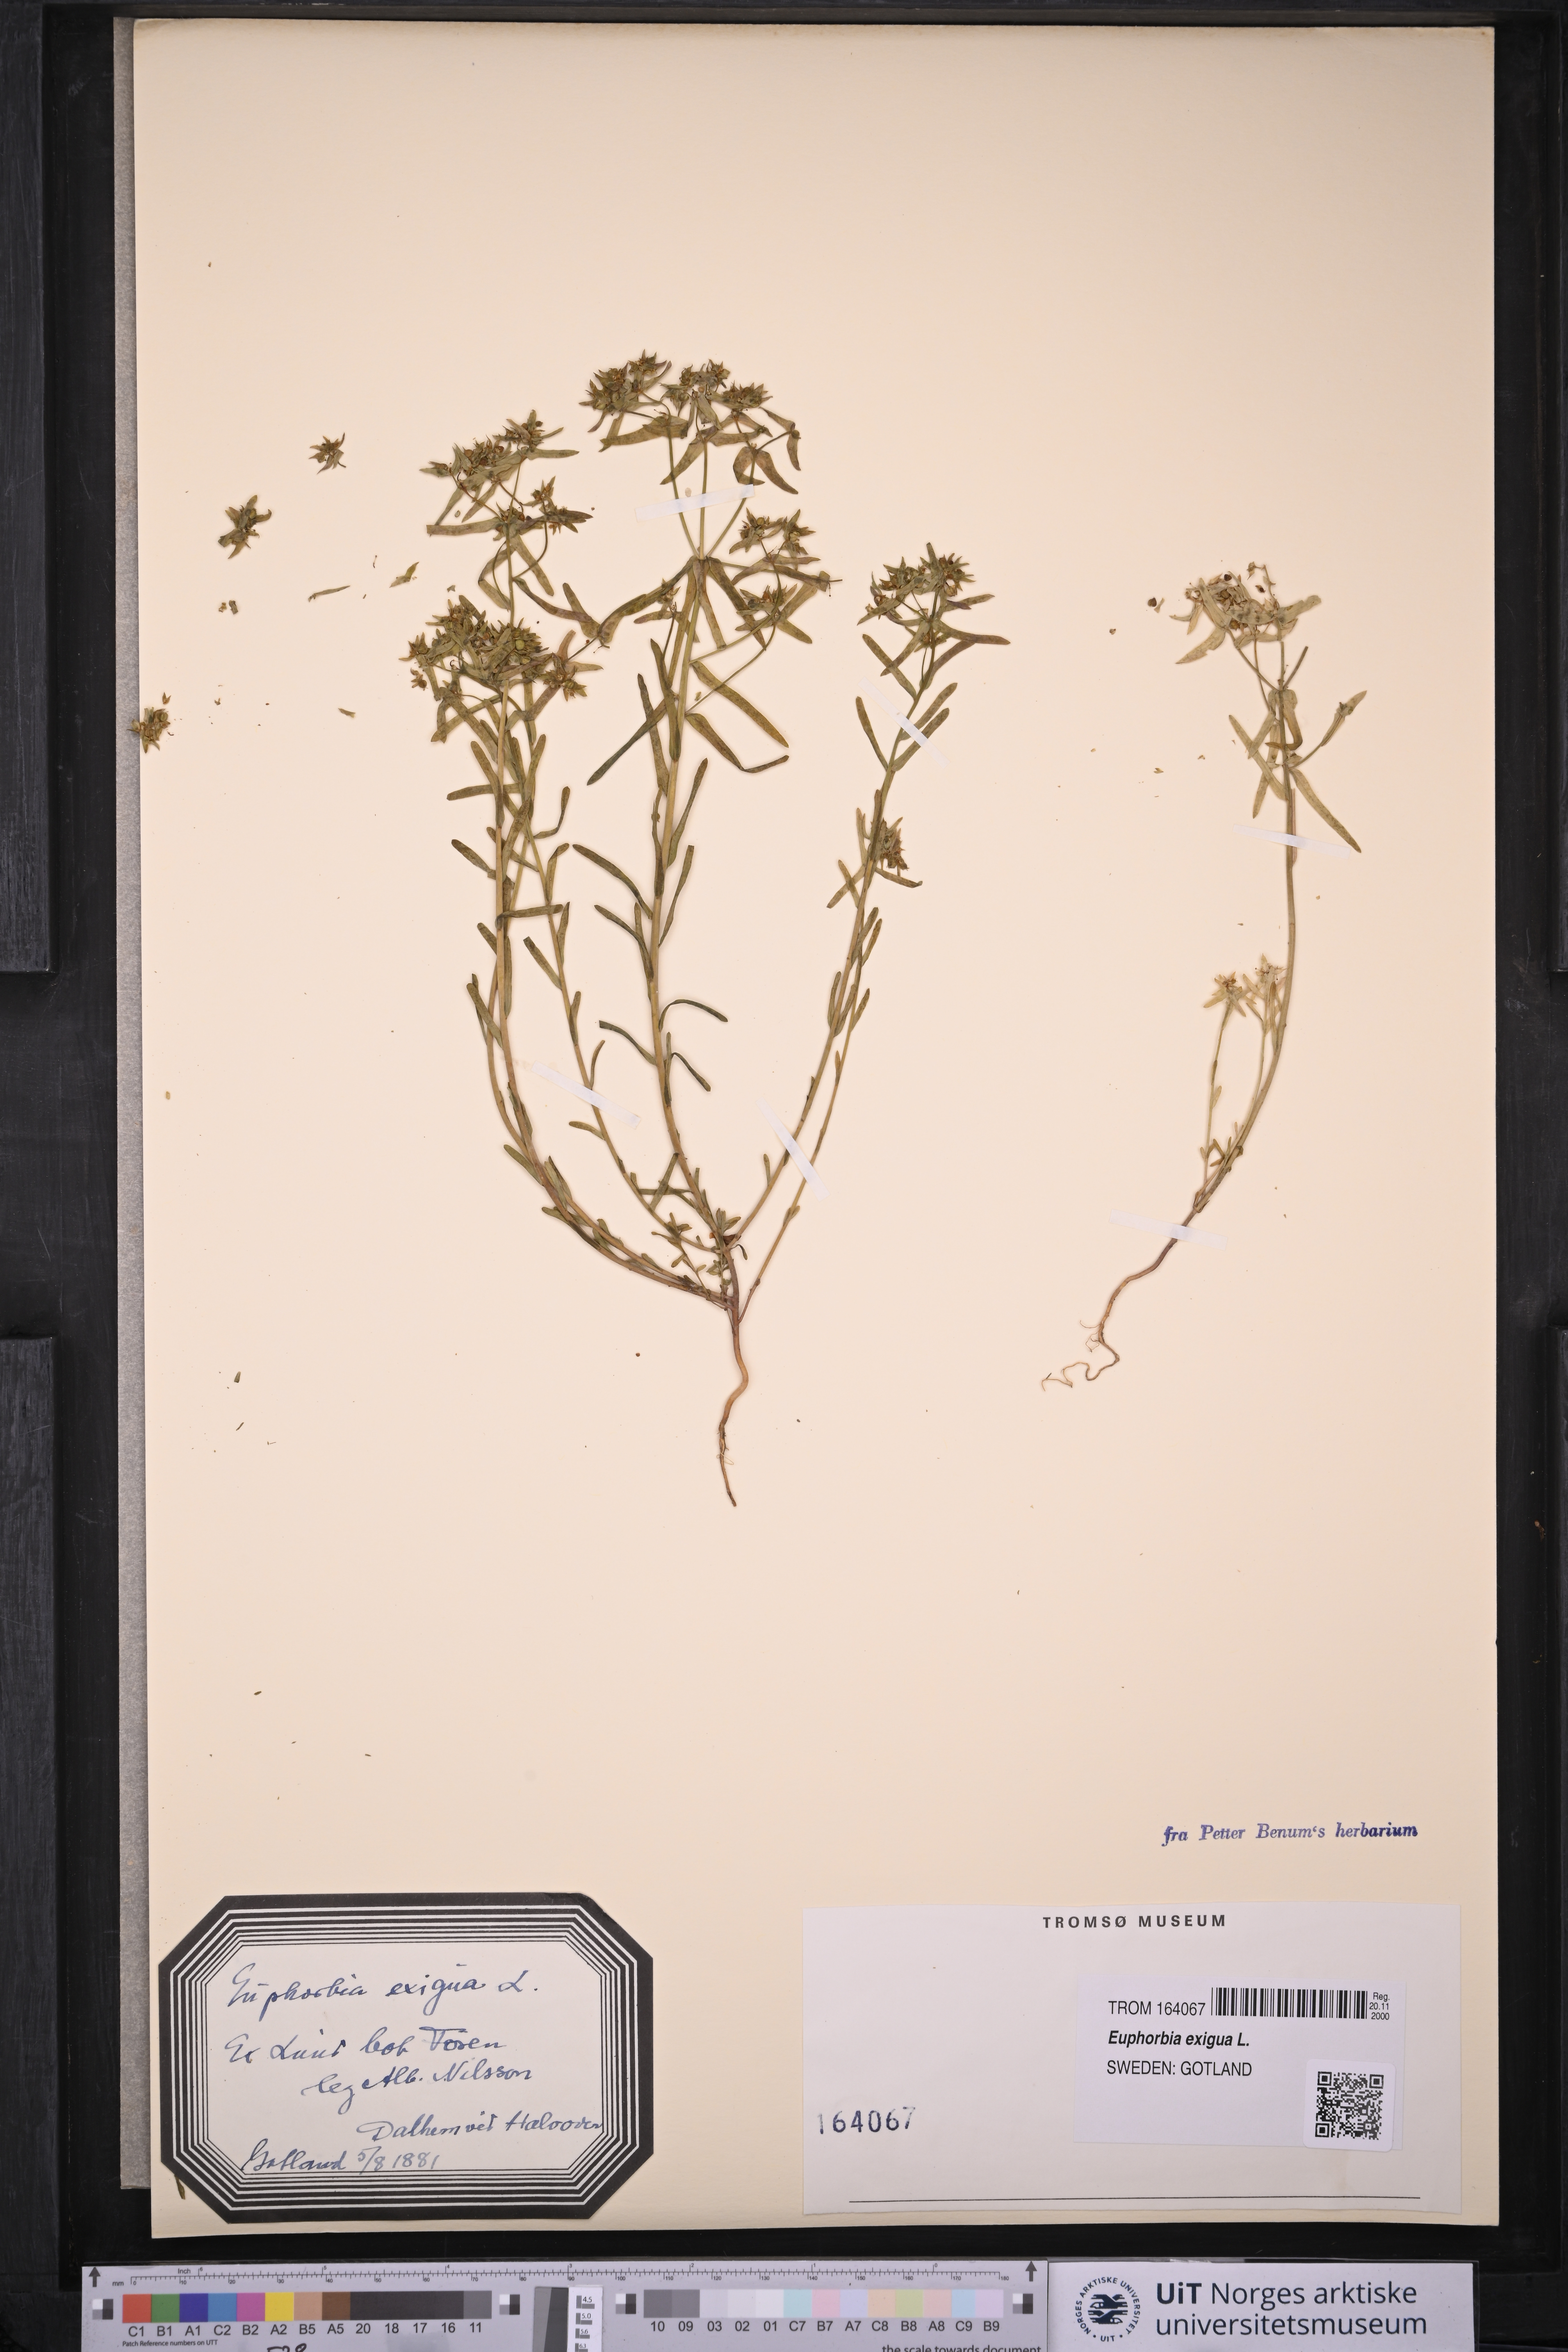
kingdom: Plantae
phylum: Tracheophyta
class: Magnoliopsida
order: Malpighiales
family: Euphorbiaceae
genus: Euphorbia
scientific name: Euphorbia exigua
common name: Dwarf spurge
